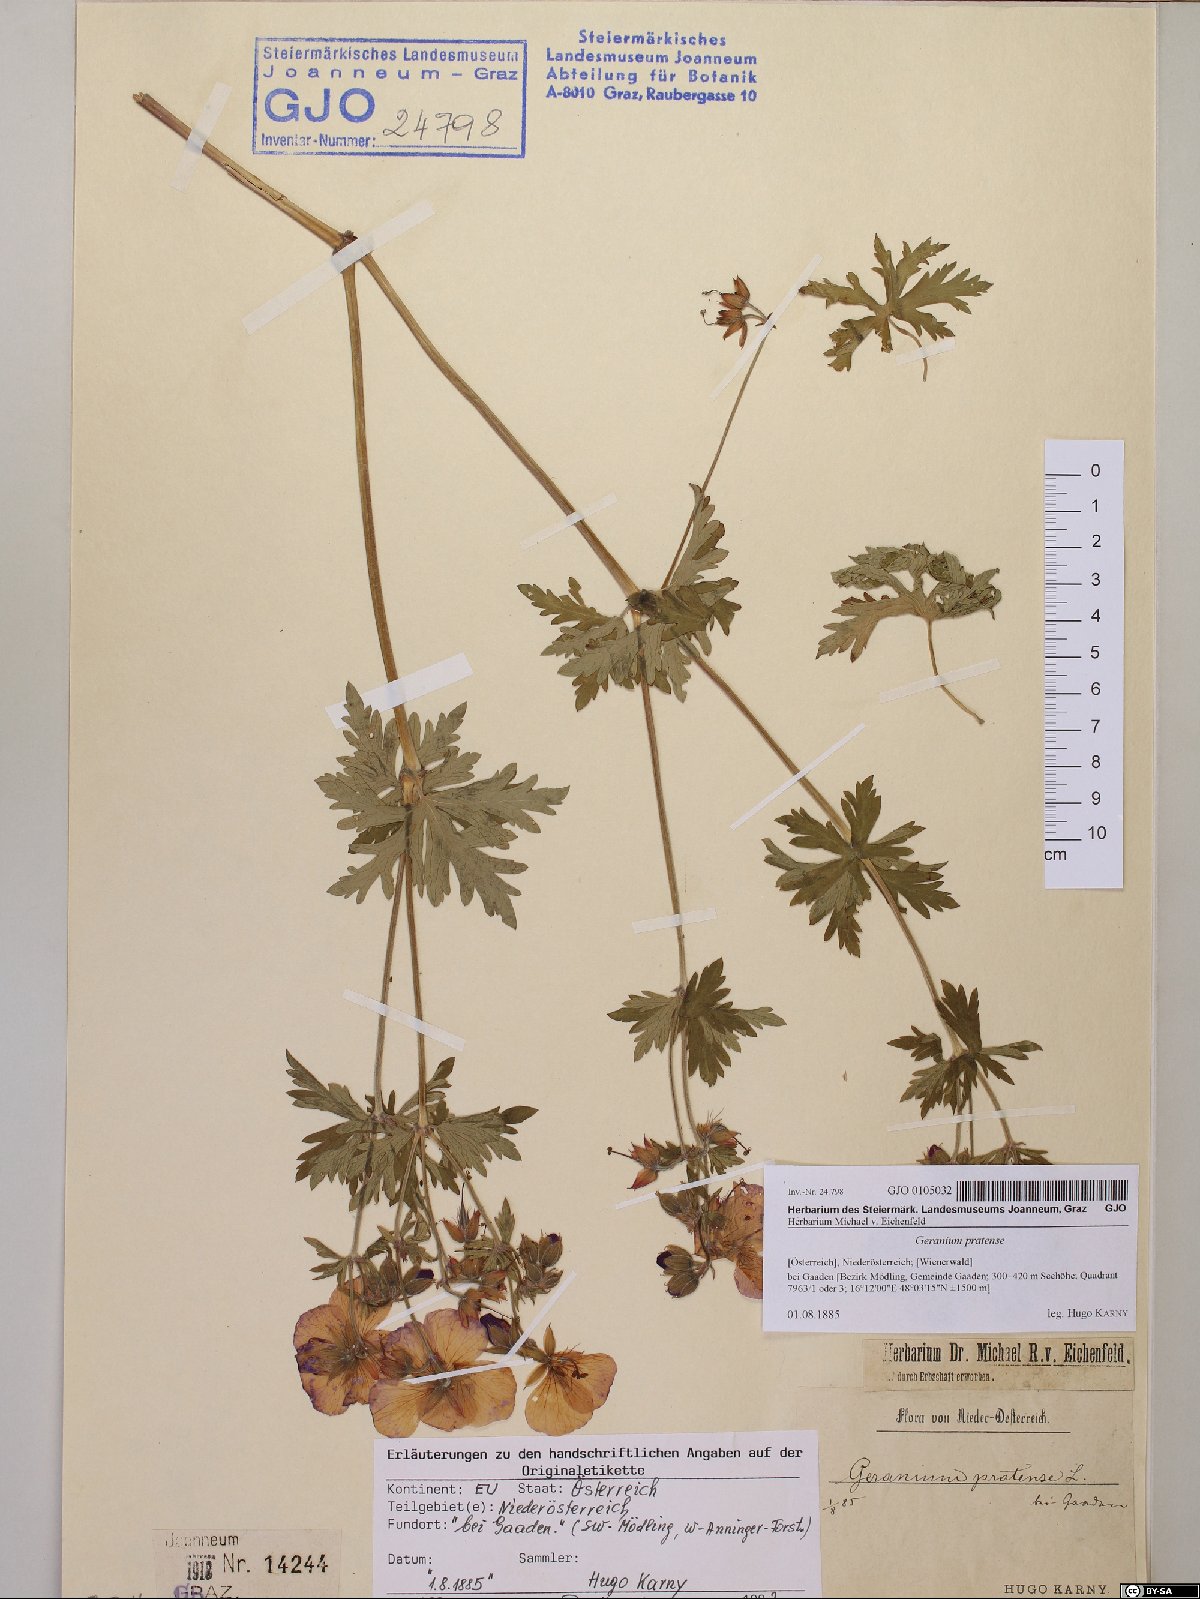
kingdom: Plantae
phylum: Tracheophyta
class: Magnoliopsida
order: Geraniales
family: Geraniaceae
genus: Geranium
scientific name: Geranium pratense
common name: Meadow crane's-bill
